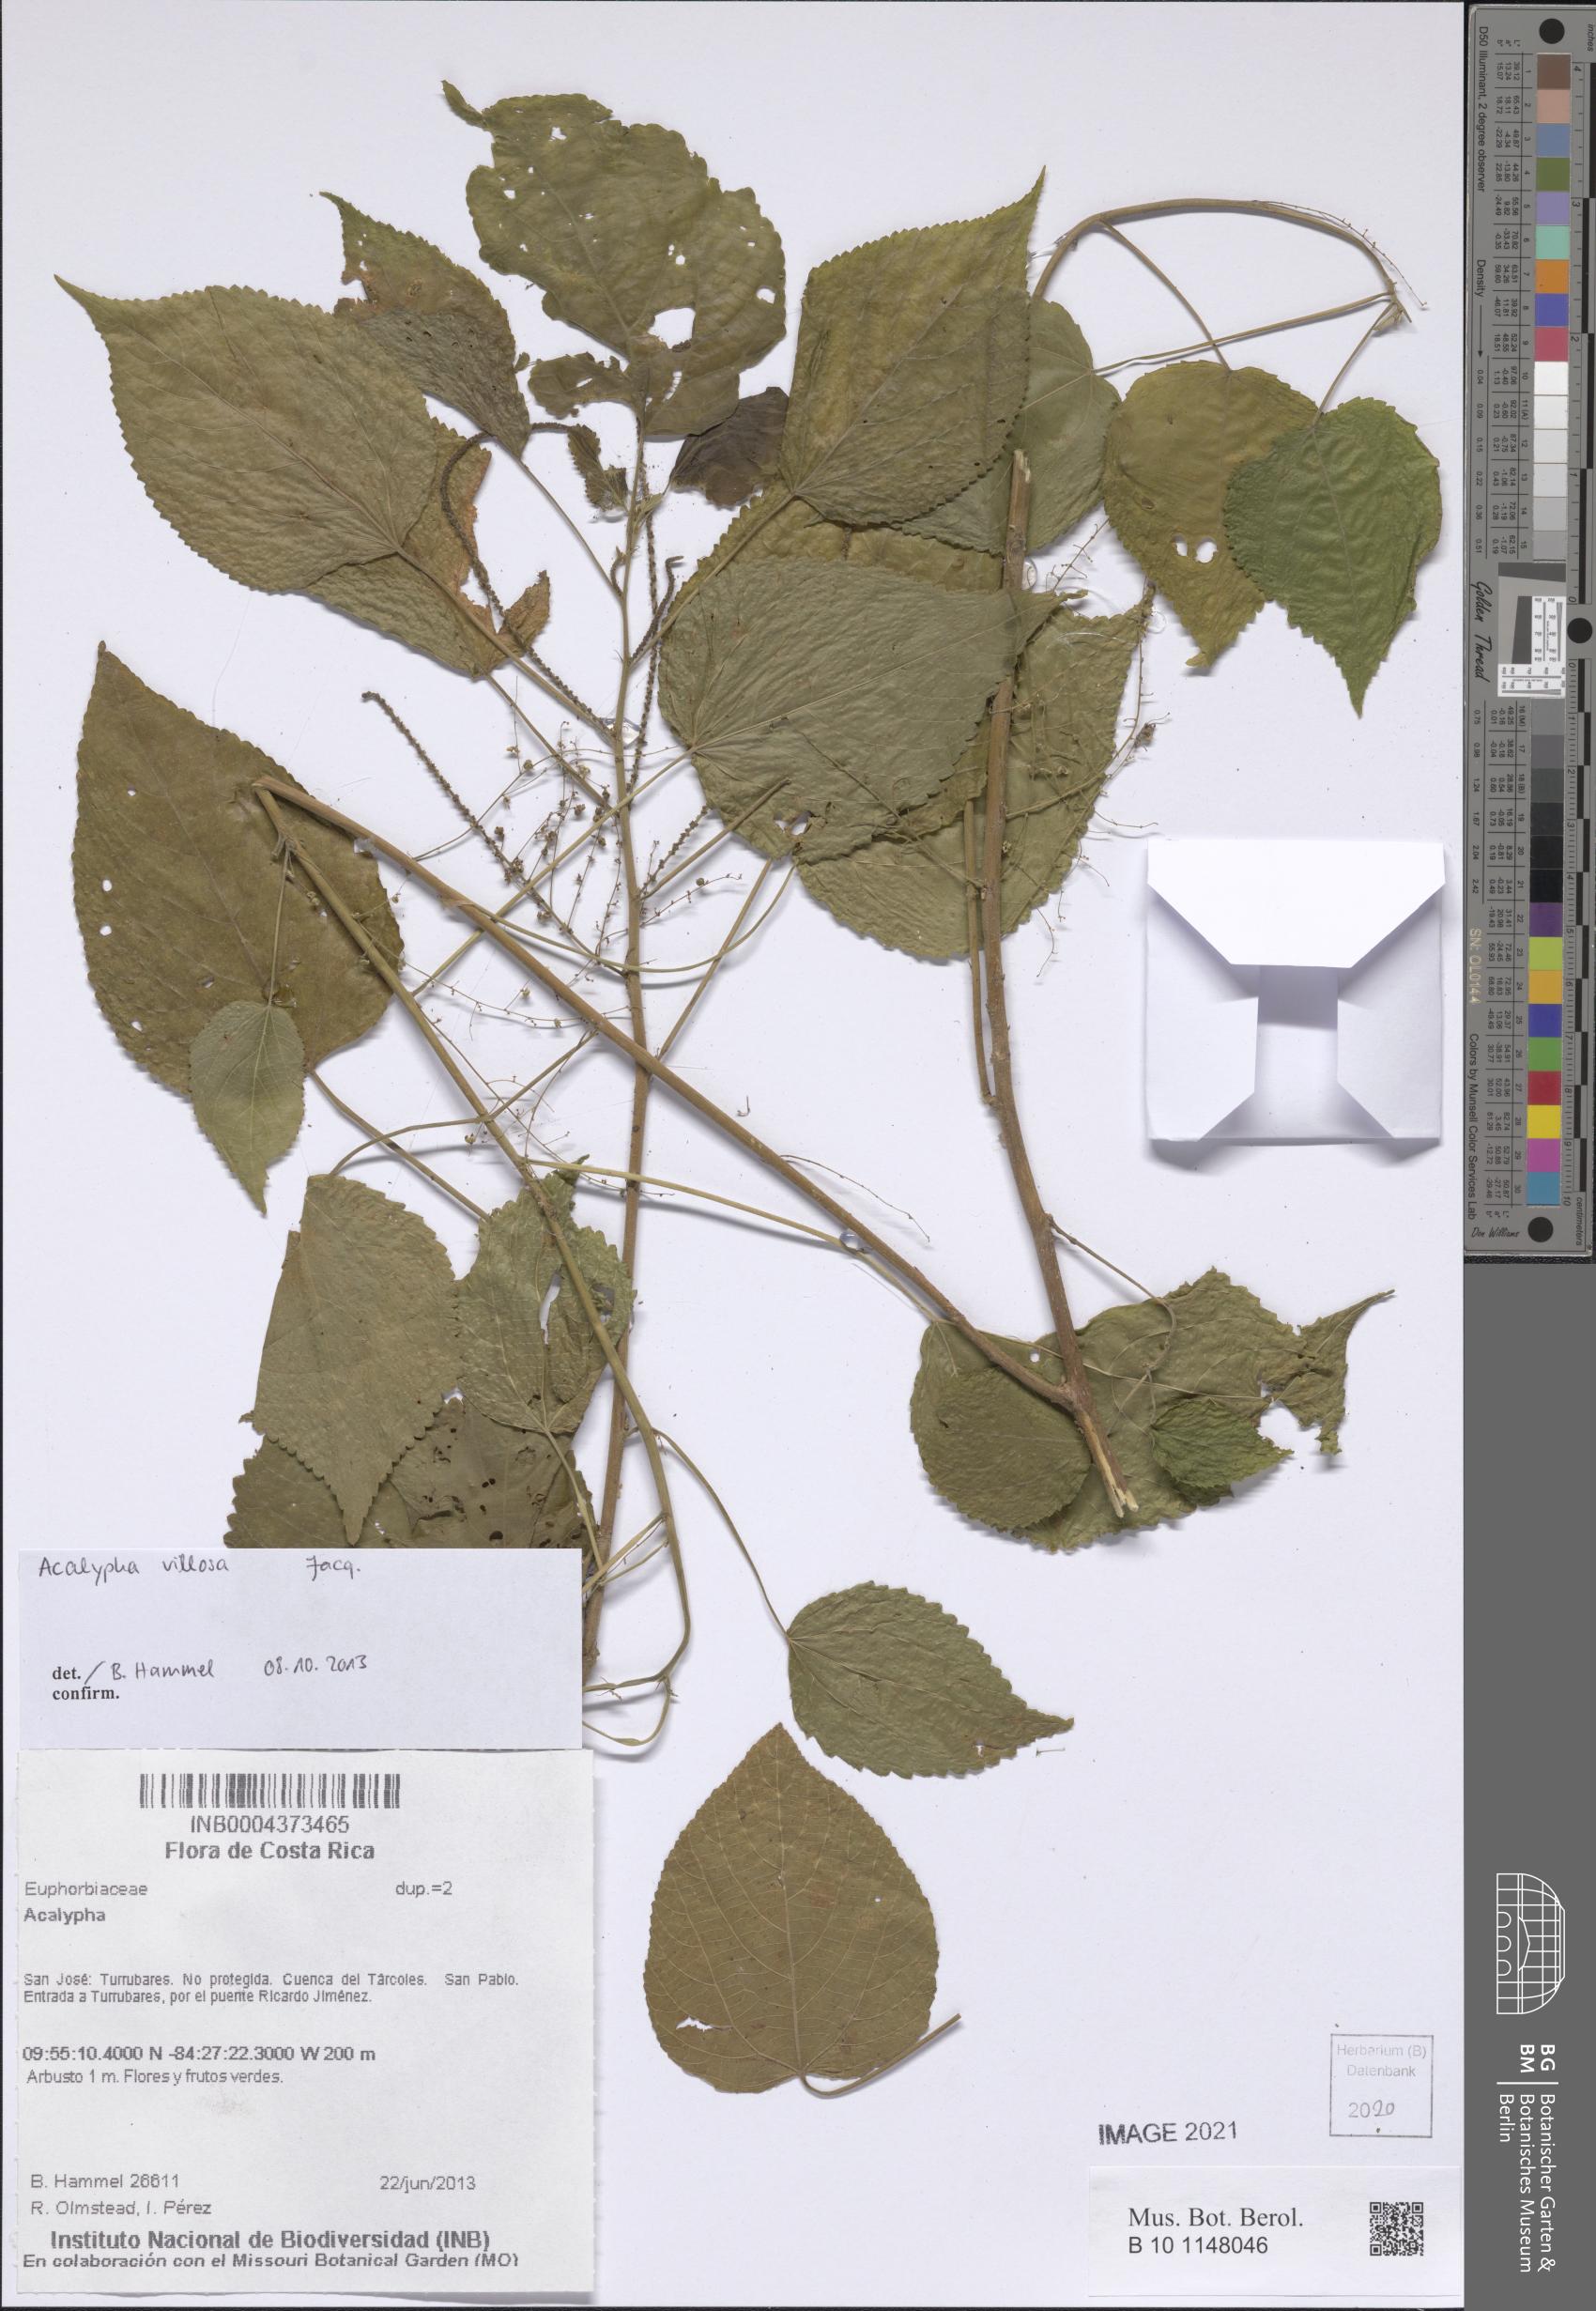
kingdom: Plantae
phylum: Tracheophyta
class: Magnoliopsida
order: Malpighiales
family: Euphorbiaceae
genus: Acalypha
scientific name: Acalypha villosa
